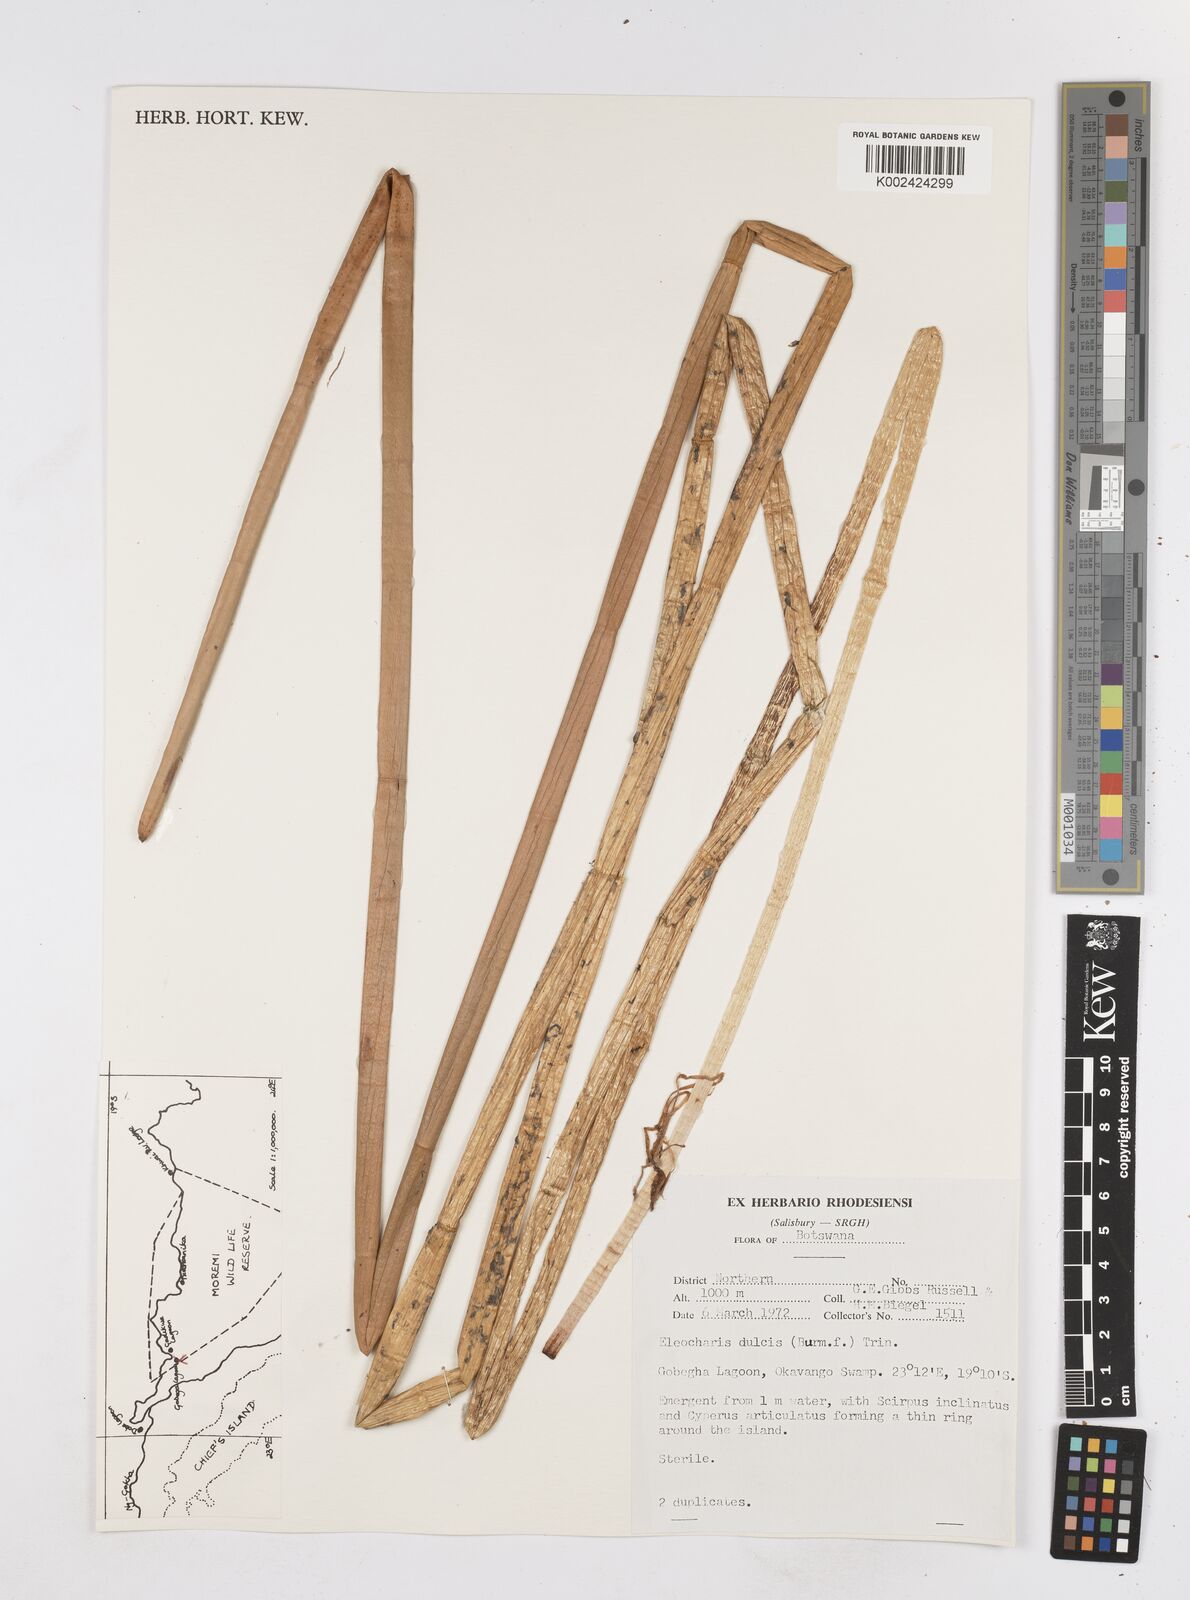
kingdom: Plantae
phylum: Tracheophyta
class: Liliopsida
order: Poales
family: Cyperaceae
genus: Eleocharis
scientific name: Eleocharis dulcis
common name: Chinese water chestnut
